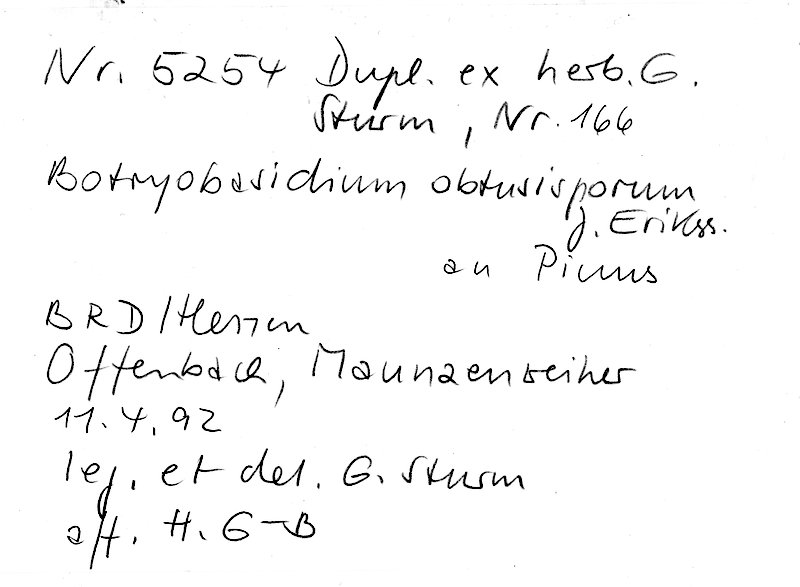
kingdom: Fungi
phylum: Basidiomycota
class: Agaricomycetes
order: Cantharellales
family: Botryobasidiaceae
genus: Botryobasidium
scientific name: Botryobasidium obtusisporum
